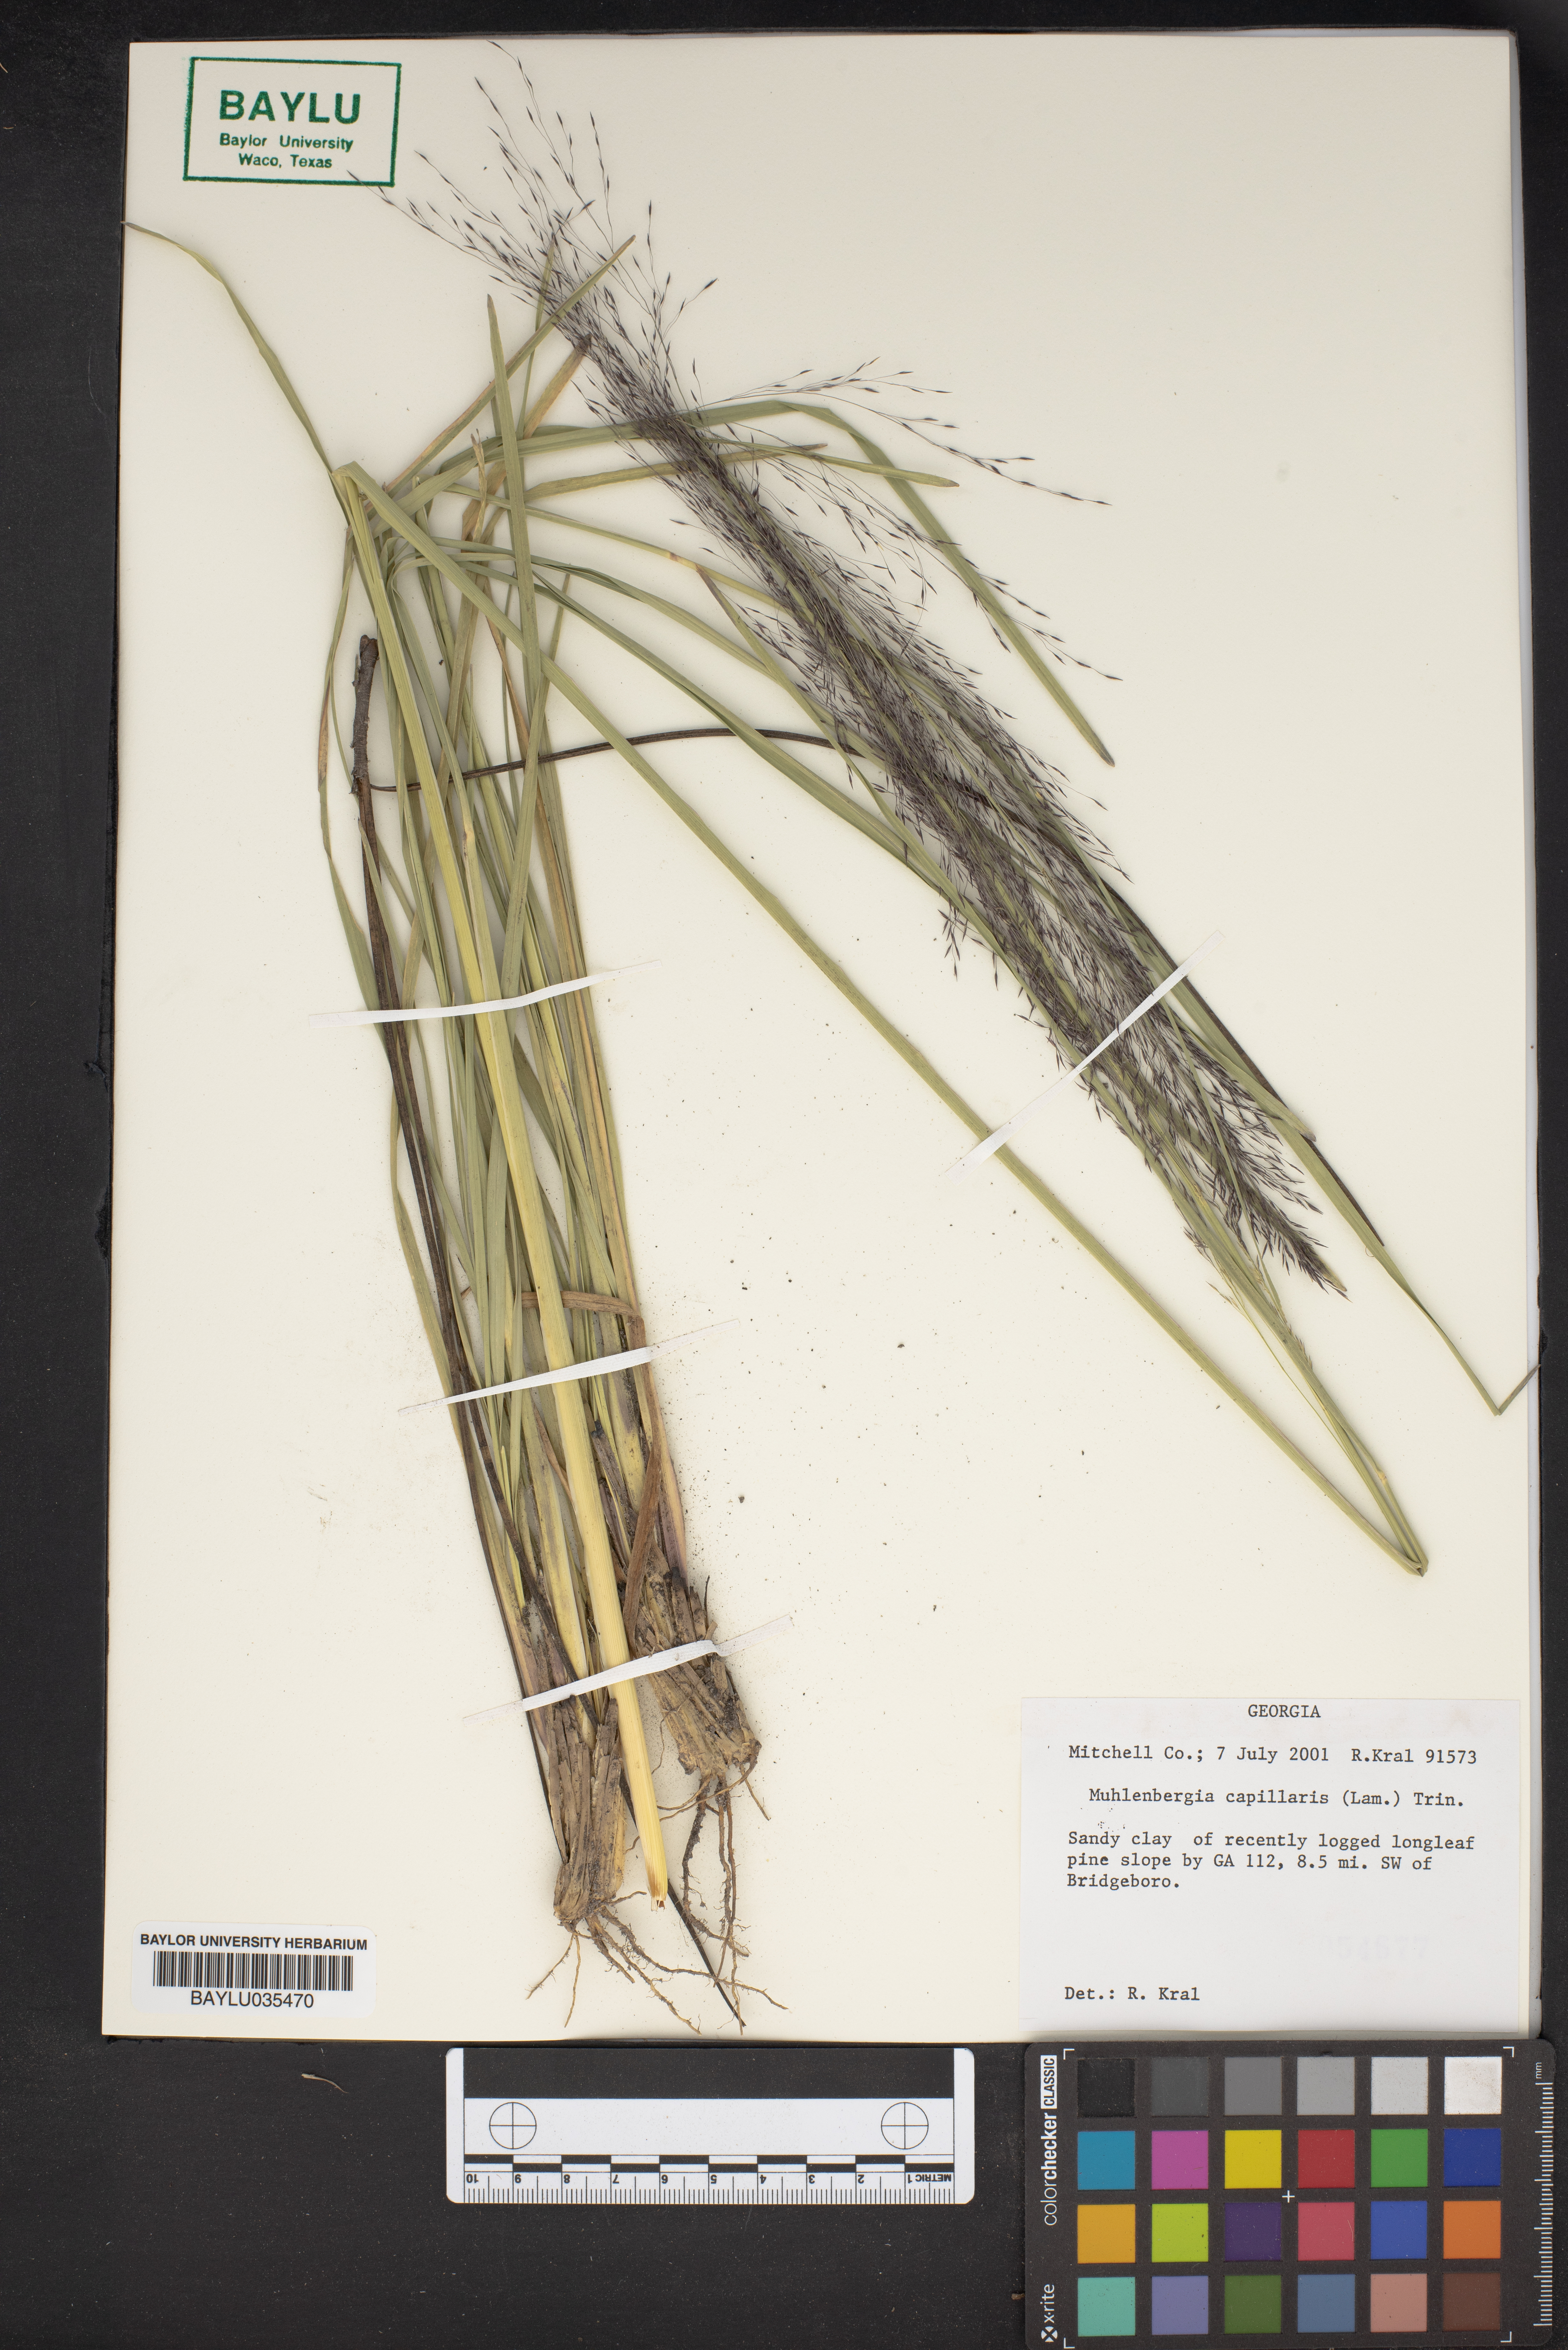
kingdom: Plantae
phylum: Tracheophyta
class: Liliopsida
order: Poales
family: Poaceae
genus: Muhlenbergia
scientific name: Muhlenbergia capillaris
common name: Purple grass
